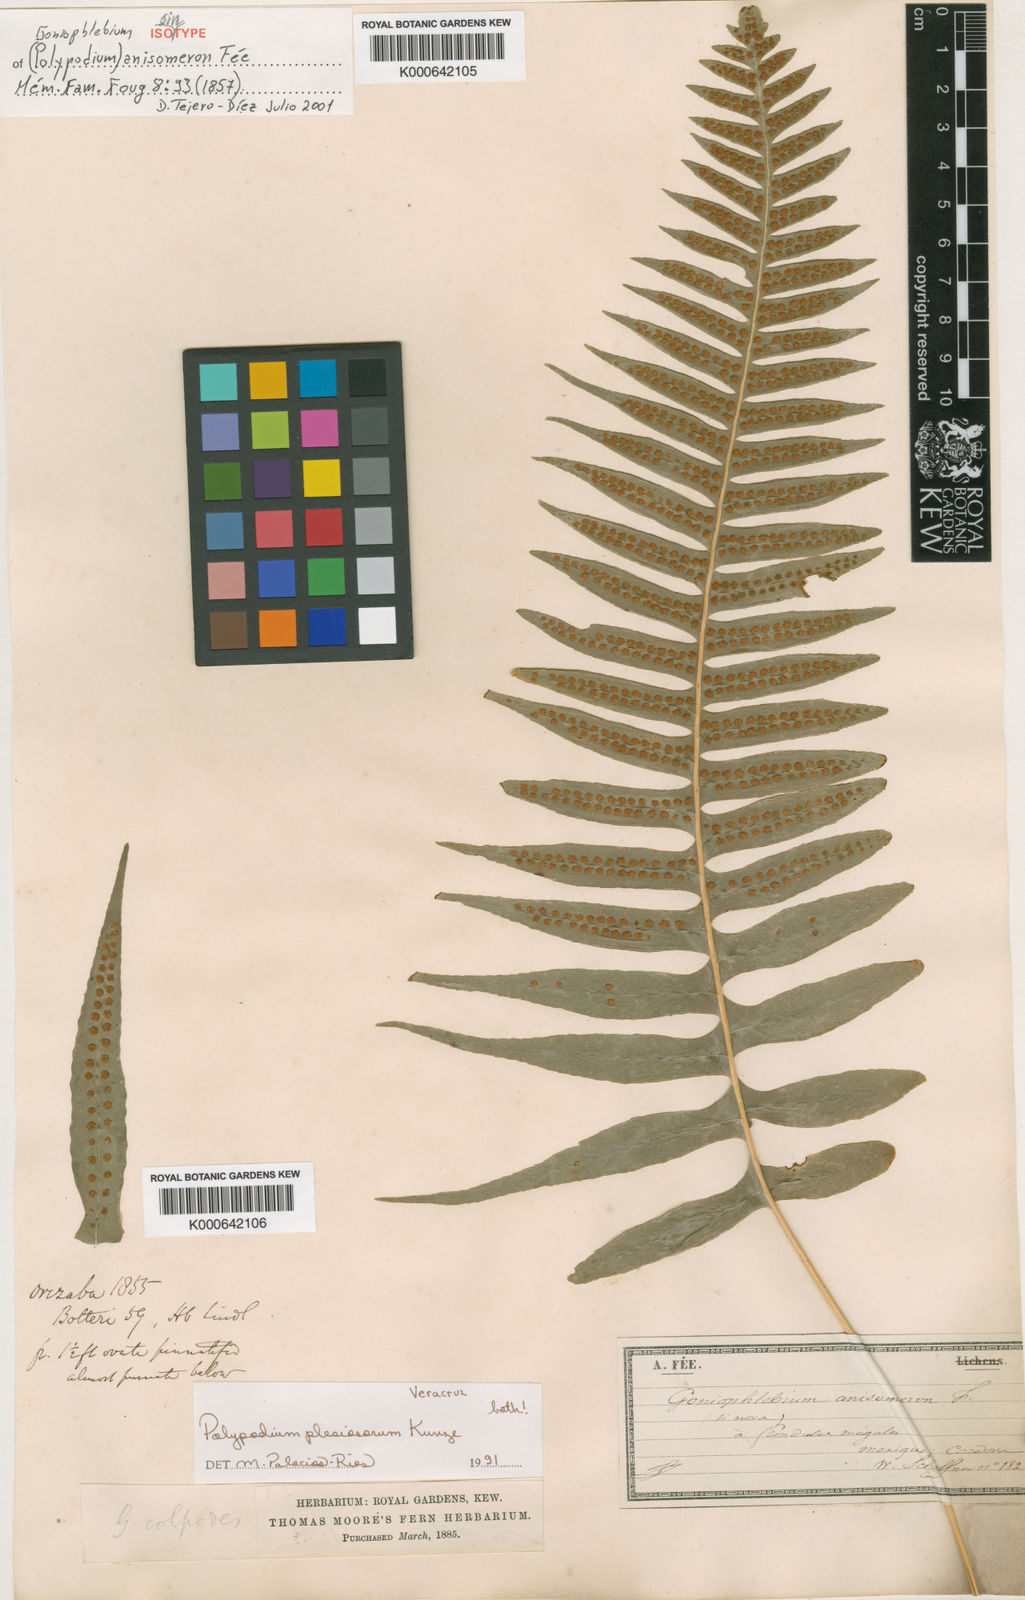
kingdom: Plantae
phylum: Tracheophyta
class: Polypodiopsida
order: Polypodiales
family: Polypodiaceae
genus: Polypodium
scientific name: Polypodium plesiosorum
